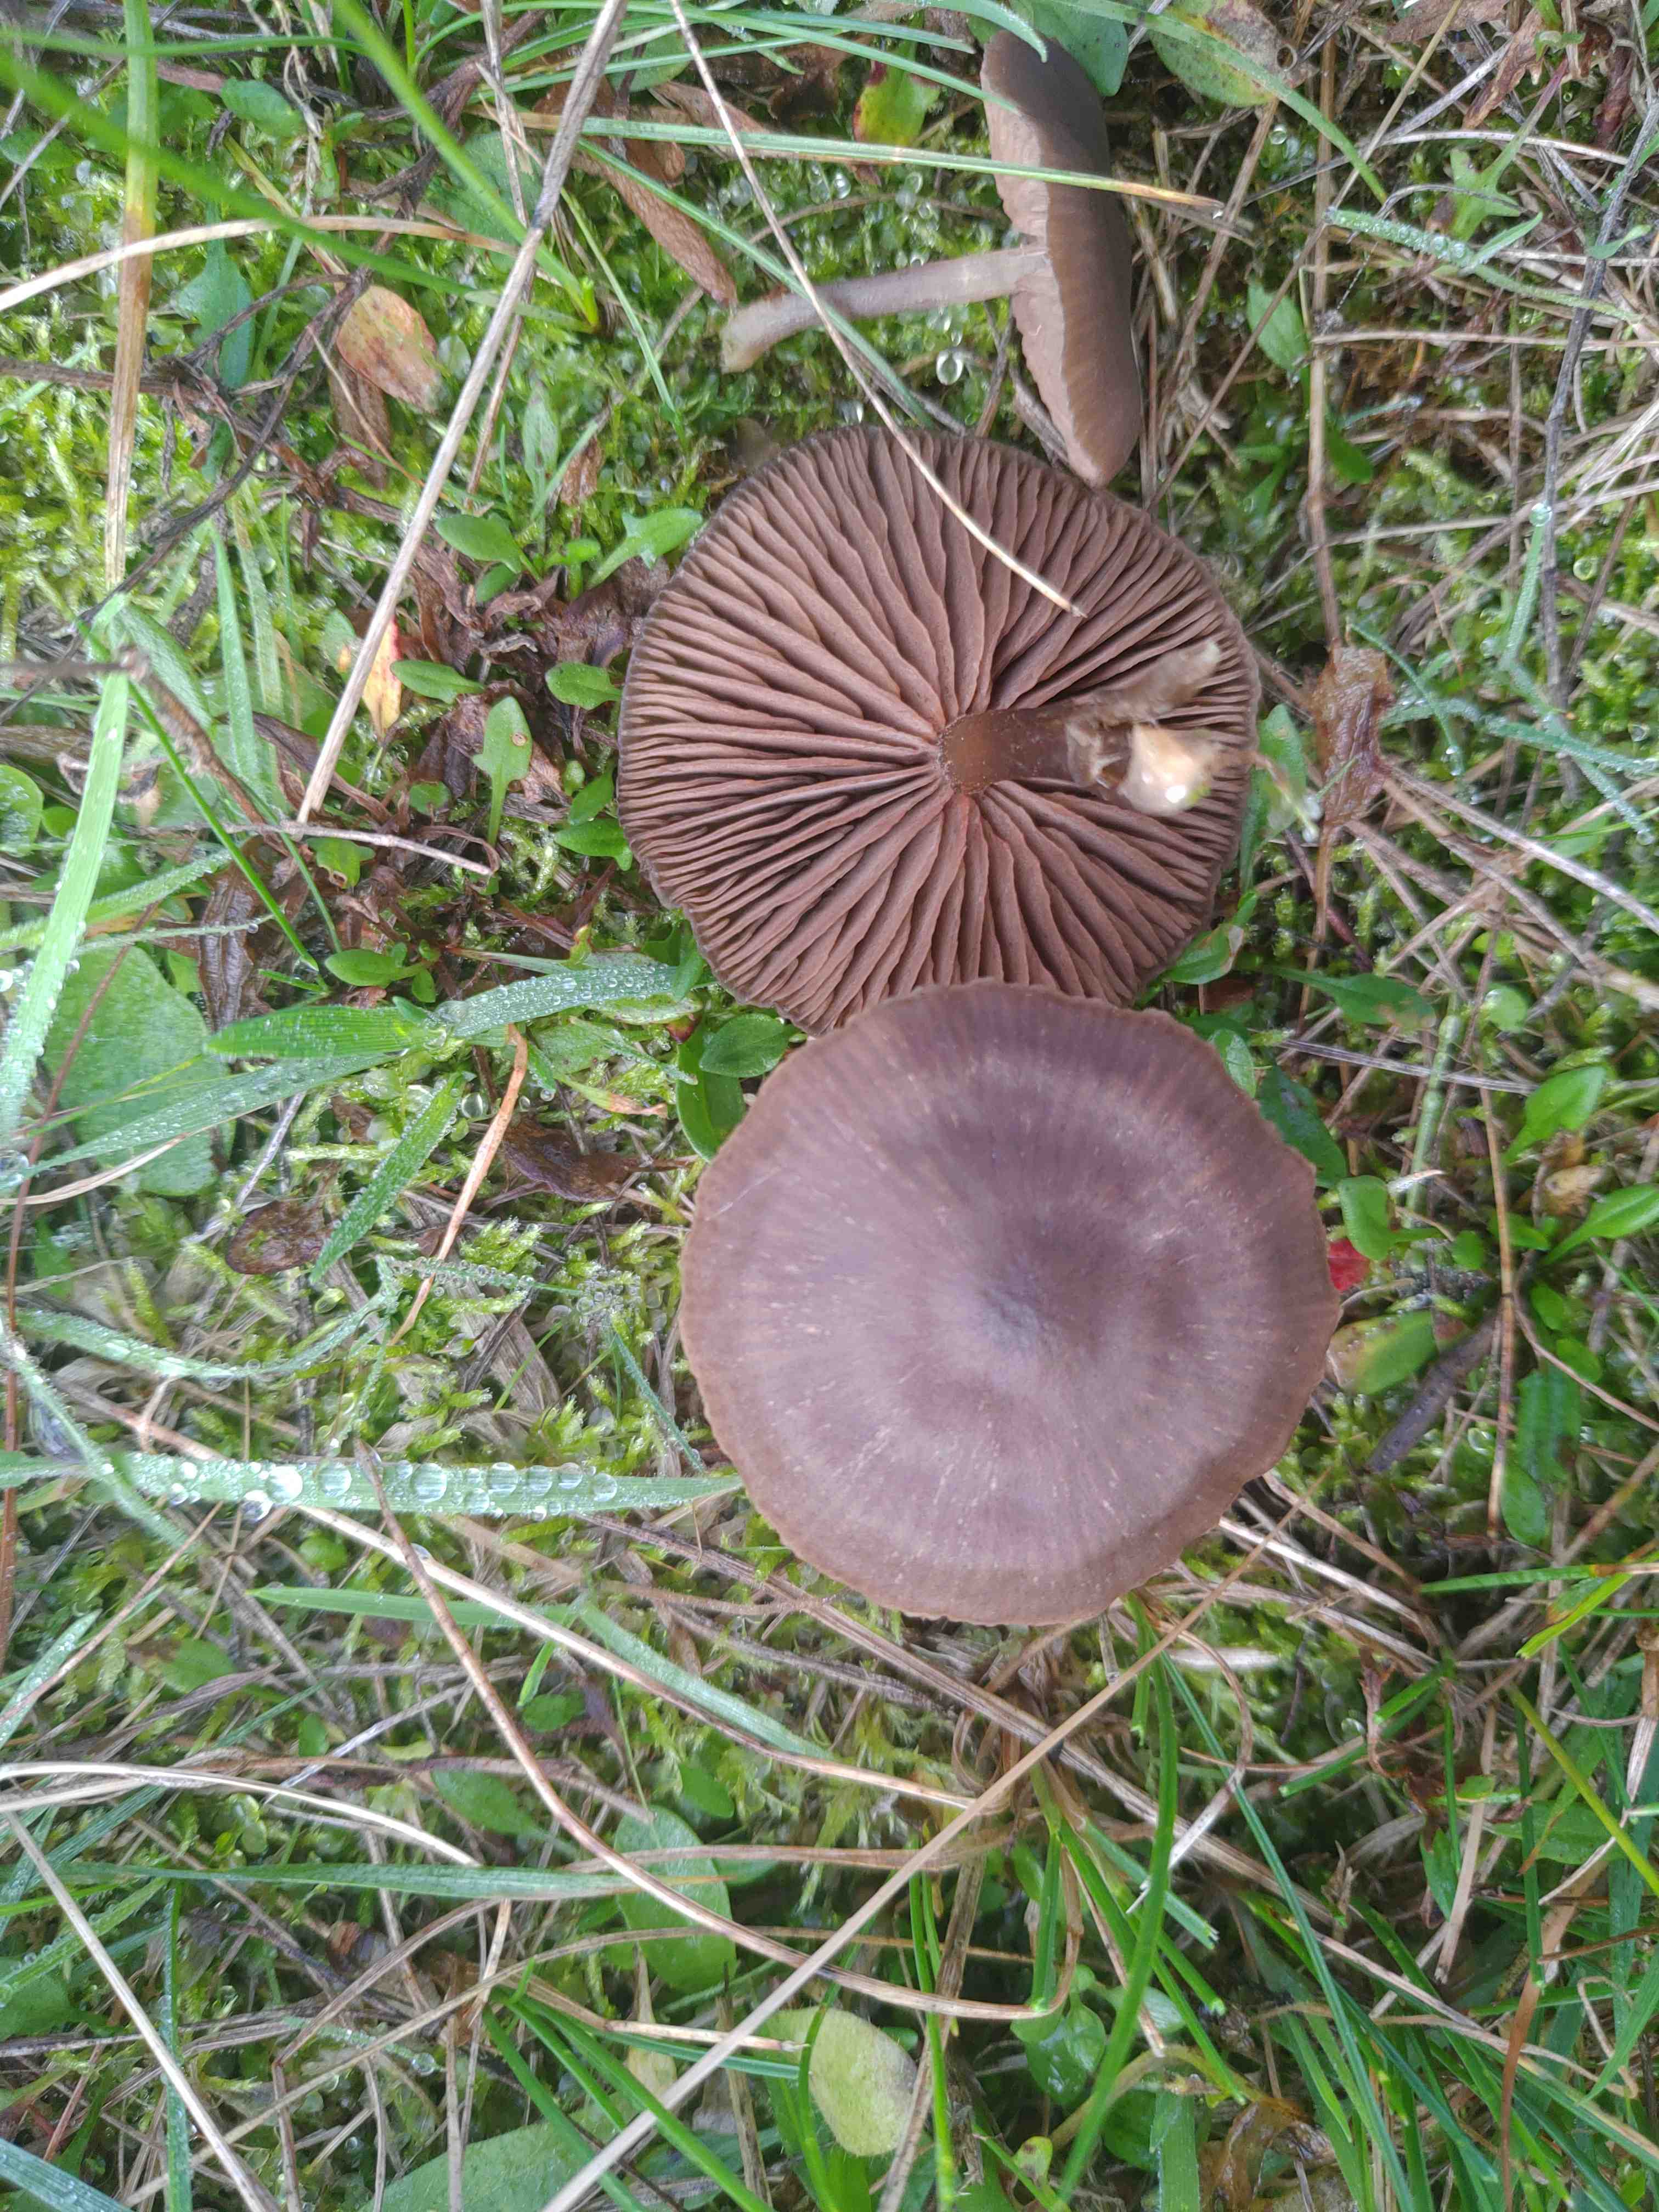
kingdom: Fungi
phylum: Basidiomycota
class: Agaricomycetes
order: Agaricales
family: Entolomataceae
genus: Entoloma
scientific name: Entoloma sericeum
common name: silkeglinsende rødblad
